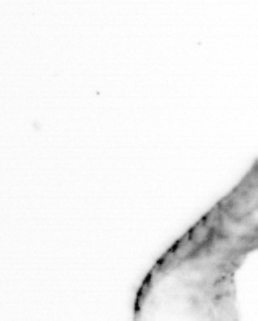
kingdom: Animalia
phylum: Annelida
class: Polychaeta
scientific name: Polychaeta
